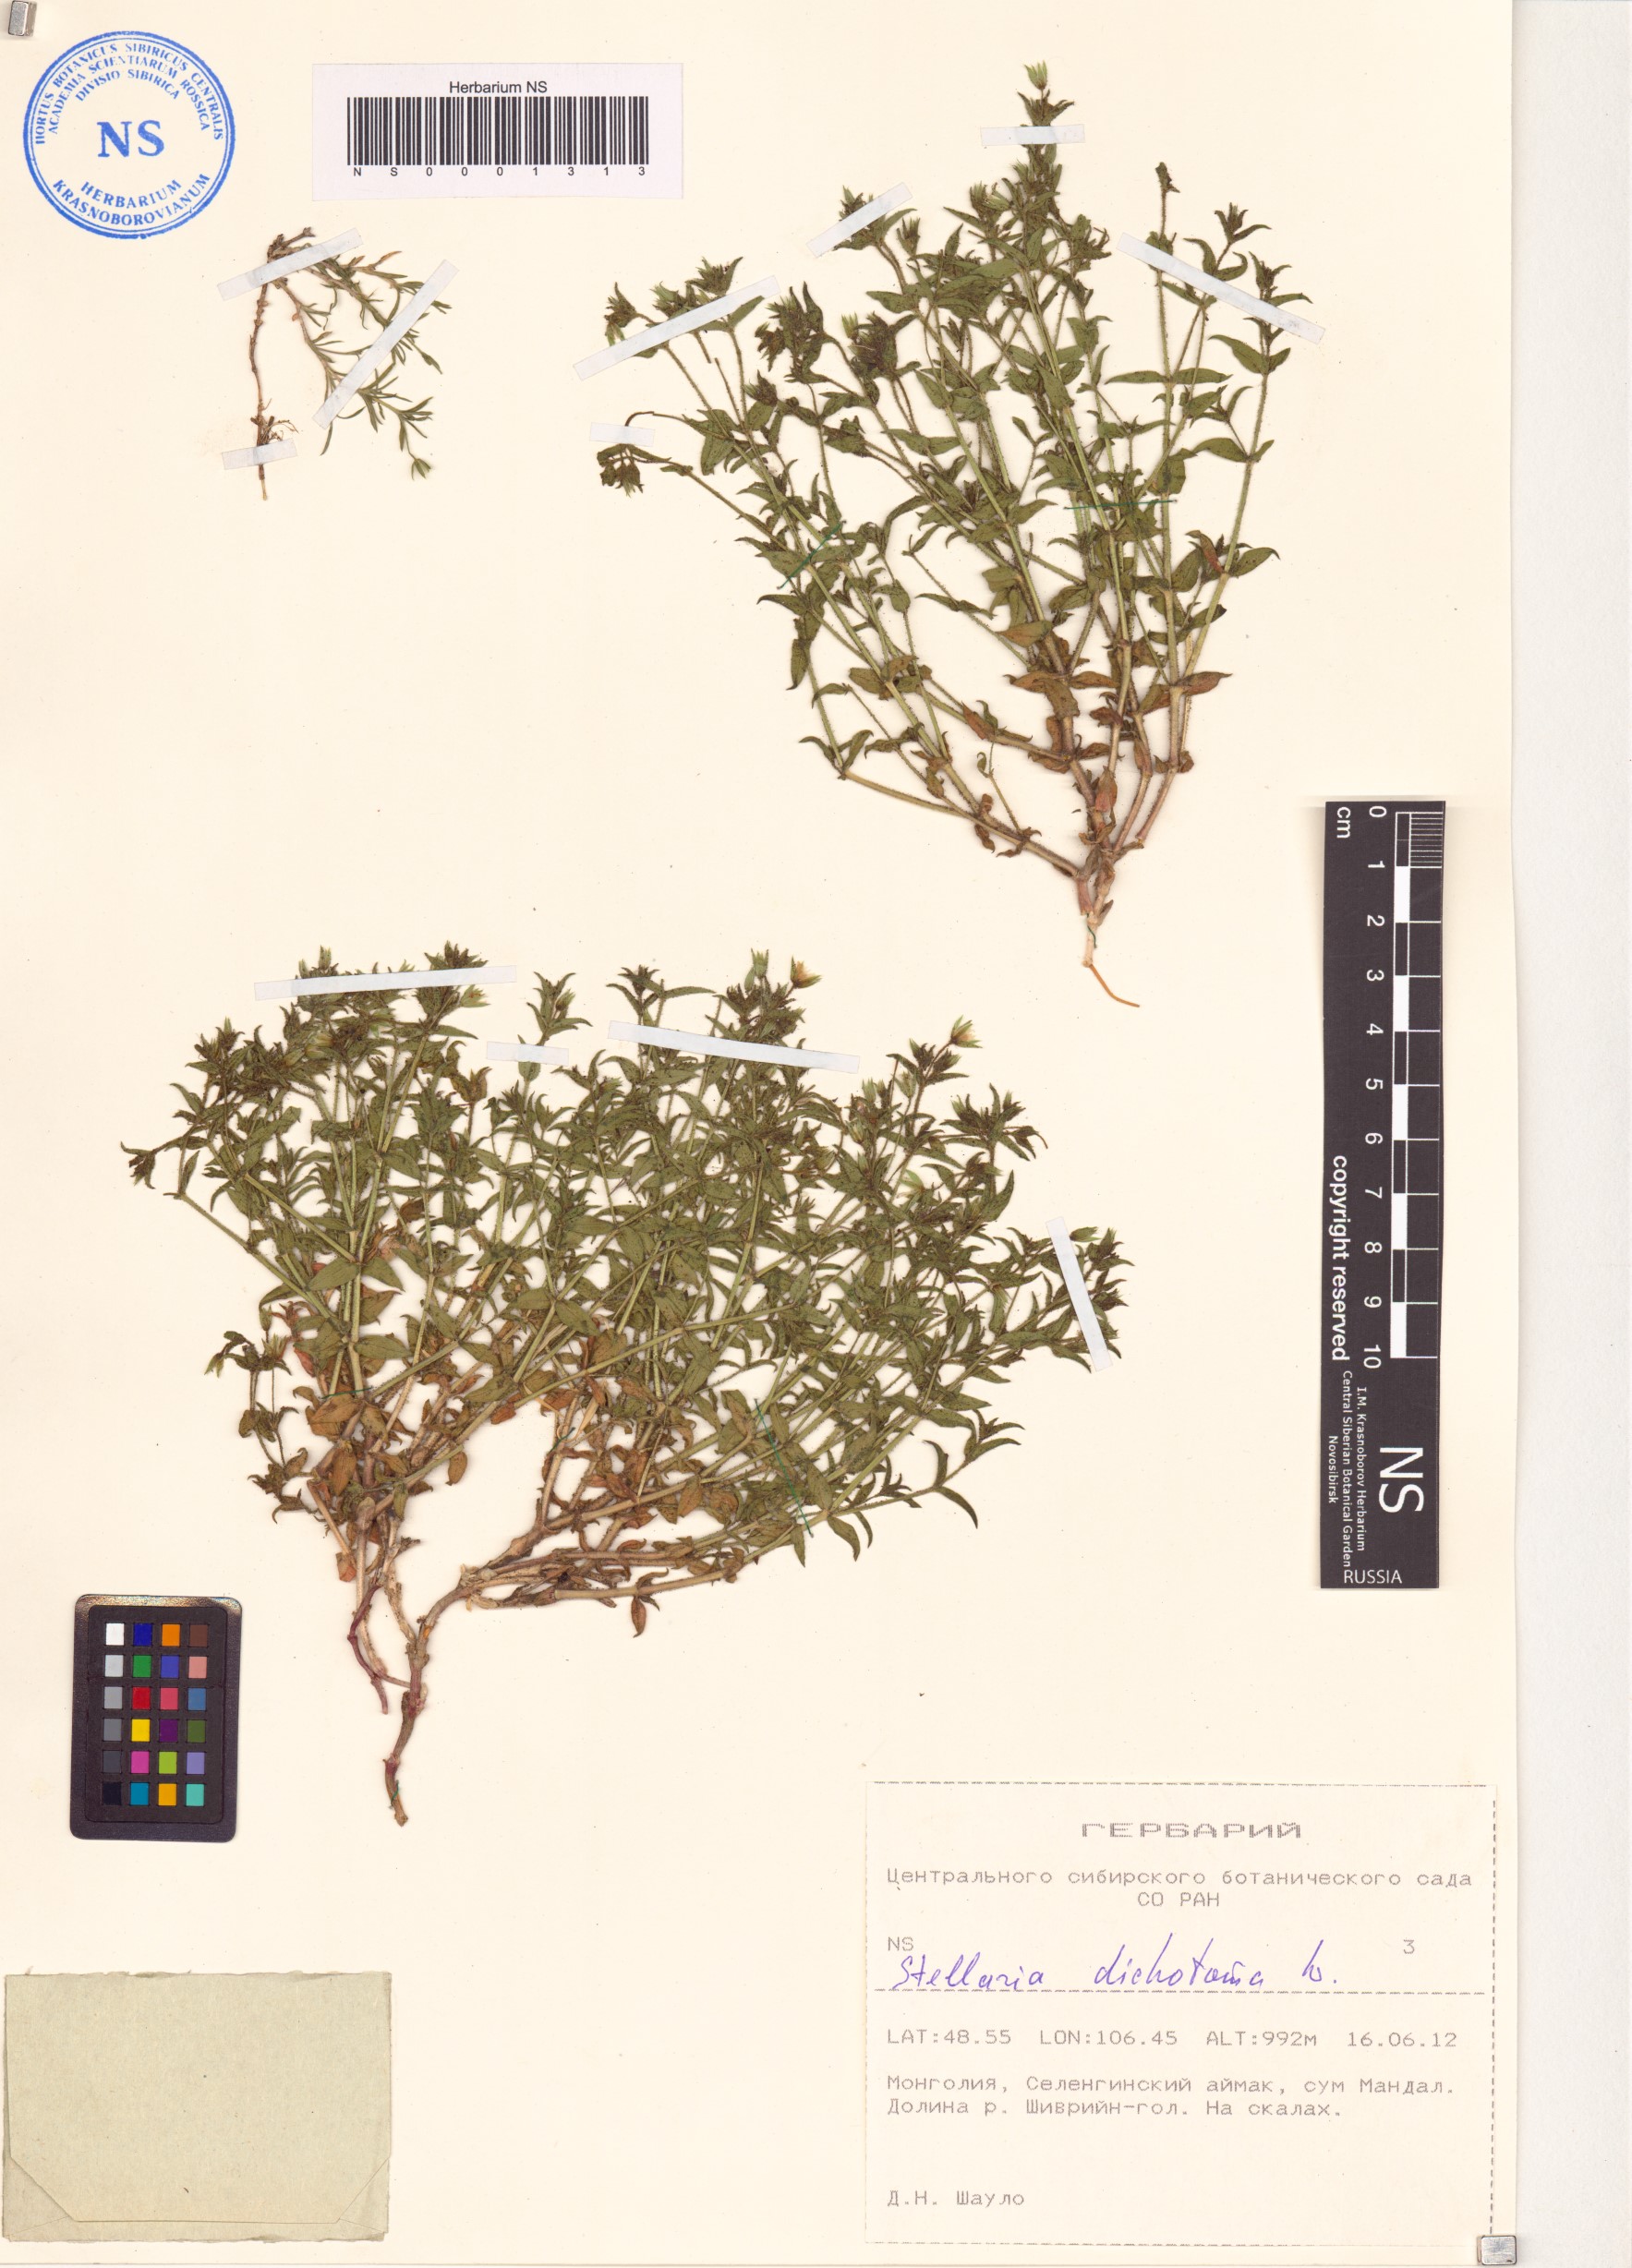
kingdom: Plantae
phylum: Tracheophyta
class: Magnoliopsida
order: Caryophyllales
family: Caryophyllaceae
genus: Mesostemma
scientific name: Mesostemma dichotomum
